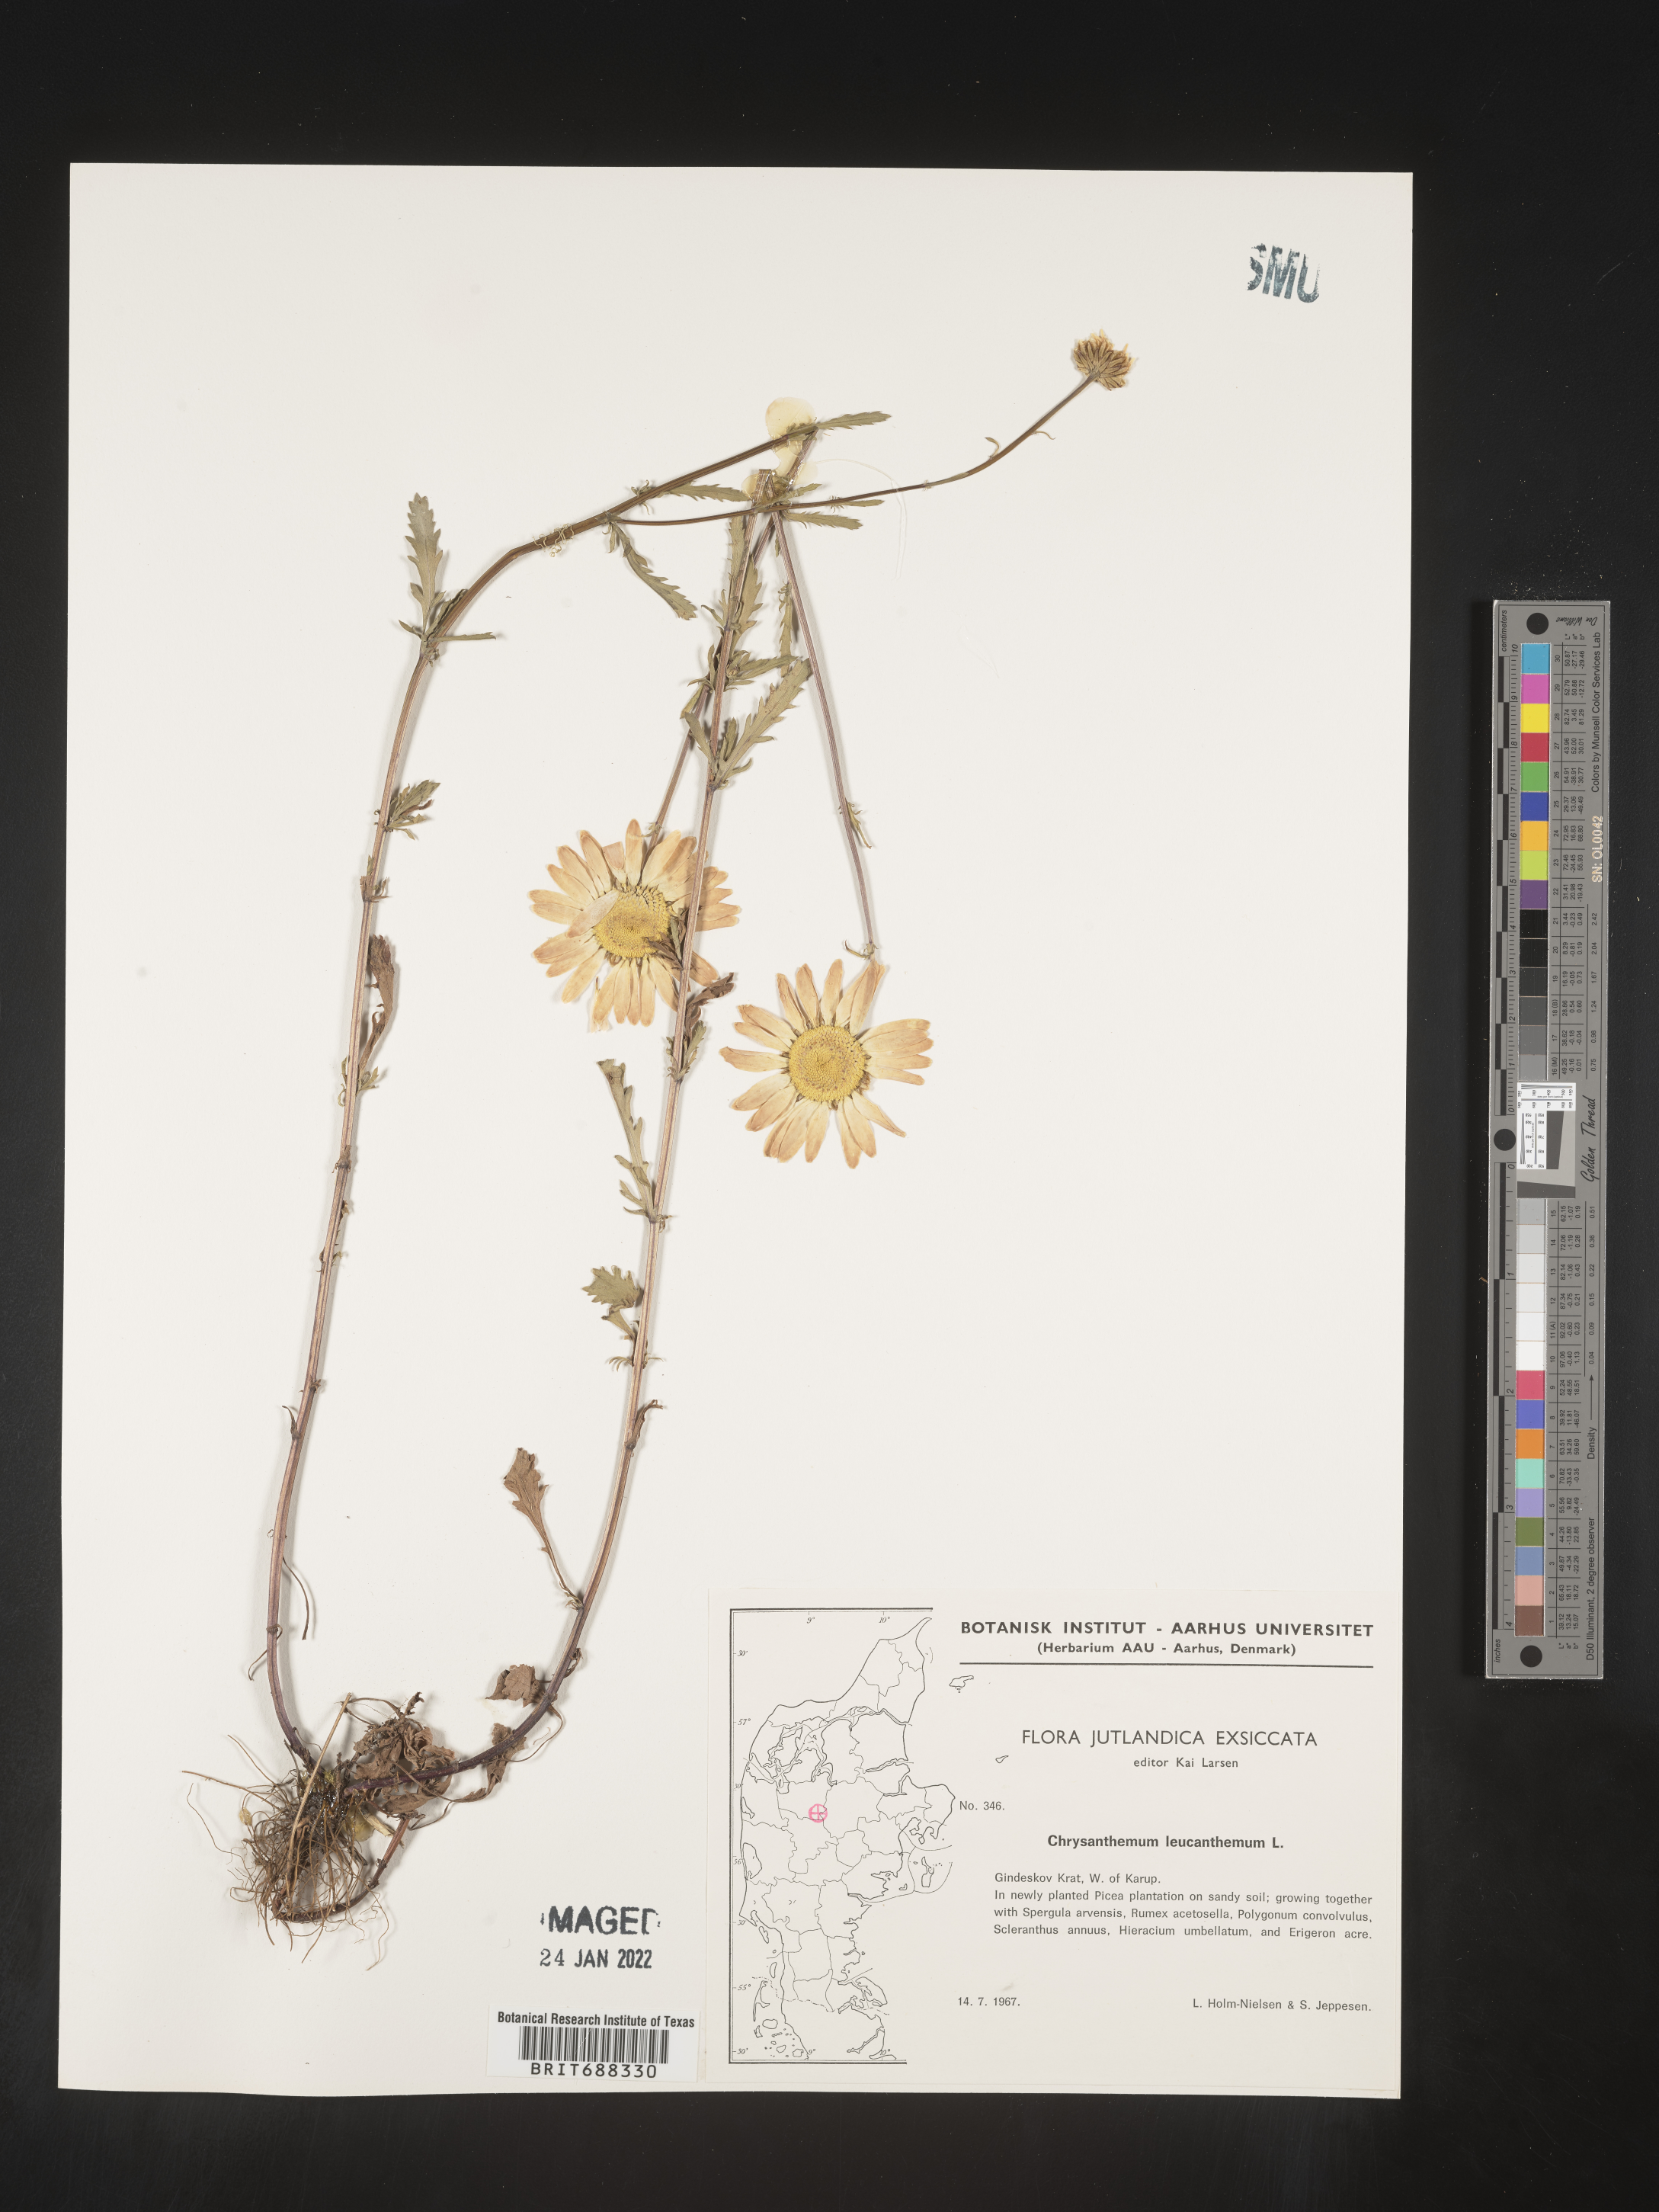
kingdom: Plantae
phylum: Tracheophyta
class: Magnoliopsida
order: Asterales
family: Asteraceae
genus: Chrysanthemum
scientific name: Chrysanthemum
